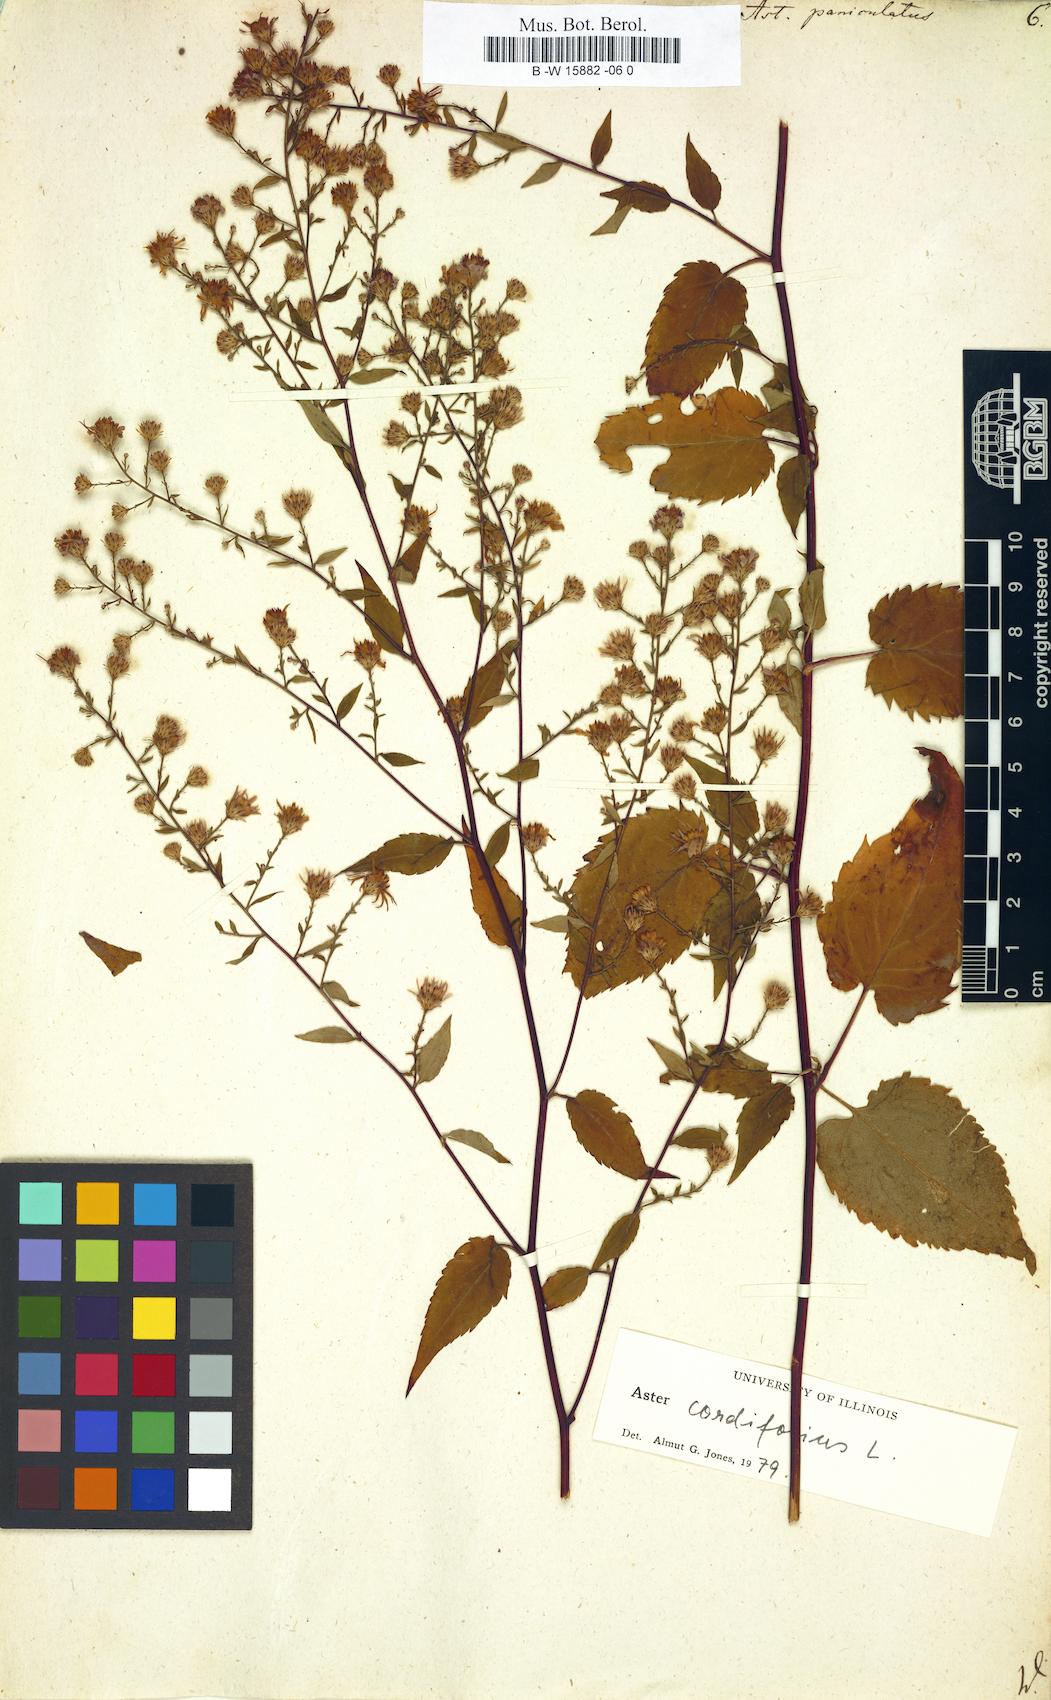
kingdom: Plantae
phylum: Tracheophyta
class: Magnoliopsida
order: Asterales
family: Asteraceae
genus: Symphyotrichum
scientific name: Symphyotrichum lanceolatum
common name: Panicled aster
